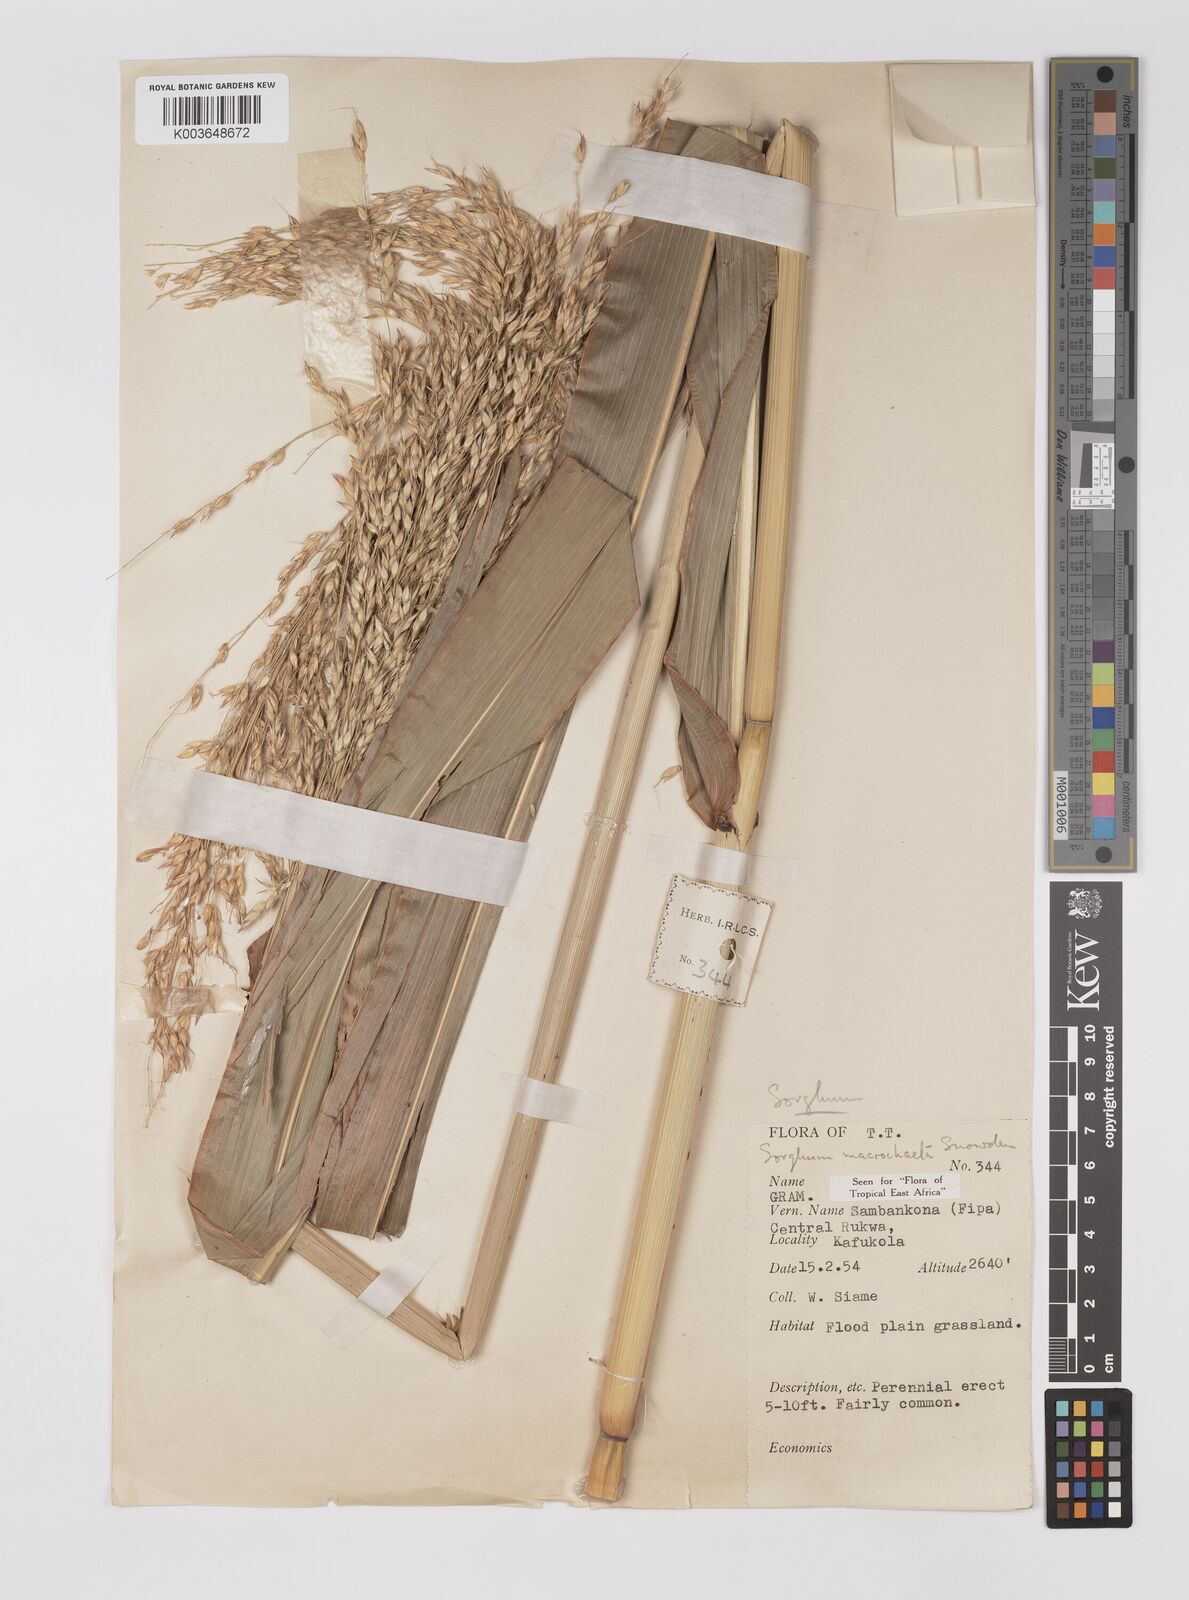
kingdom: Plantae
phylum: Tracheophyta
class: Liliopsida
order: Poales
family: Poaceae
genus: Sorghum
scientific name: Sorghum arundinaceum
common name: Sorghum
